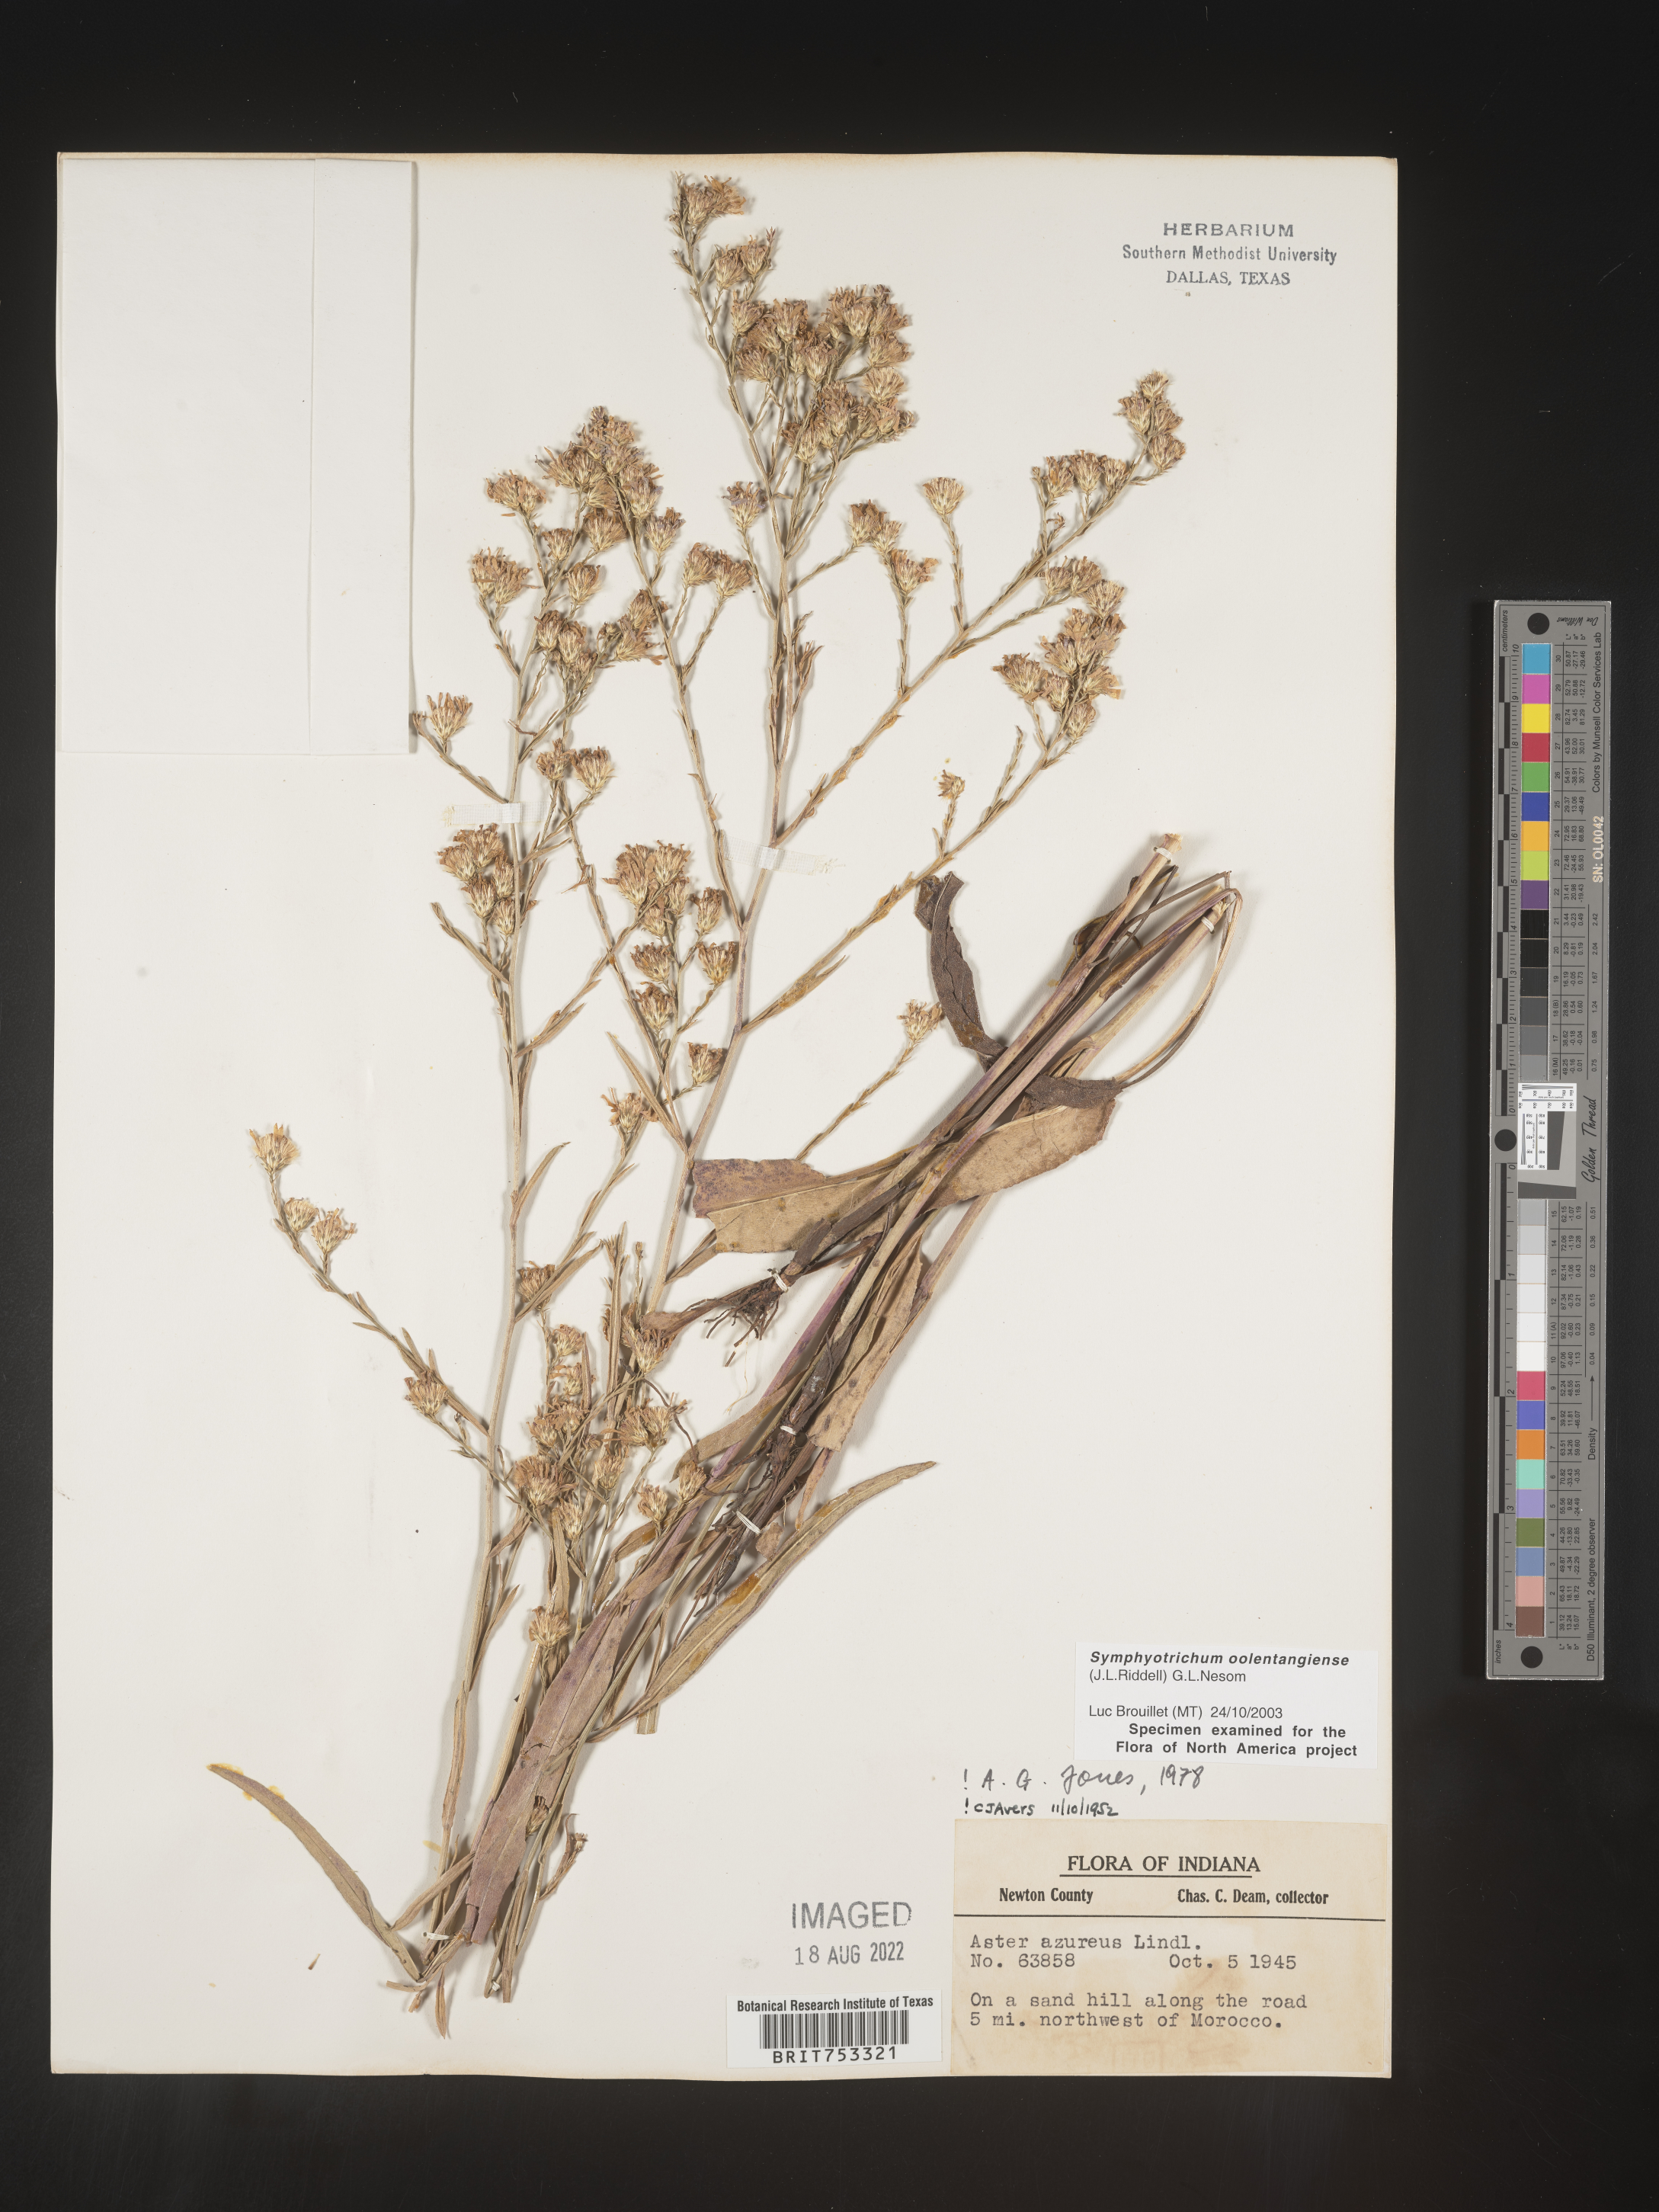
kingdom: Plantae
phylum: Tracheophyta
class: Magnoliopsida
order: Asterales
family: Asteraceae
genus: Symphyotrichum
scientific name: Symphyotrichum oolentangiense
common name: Azure aster
